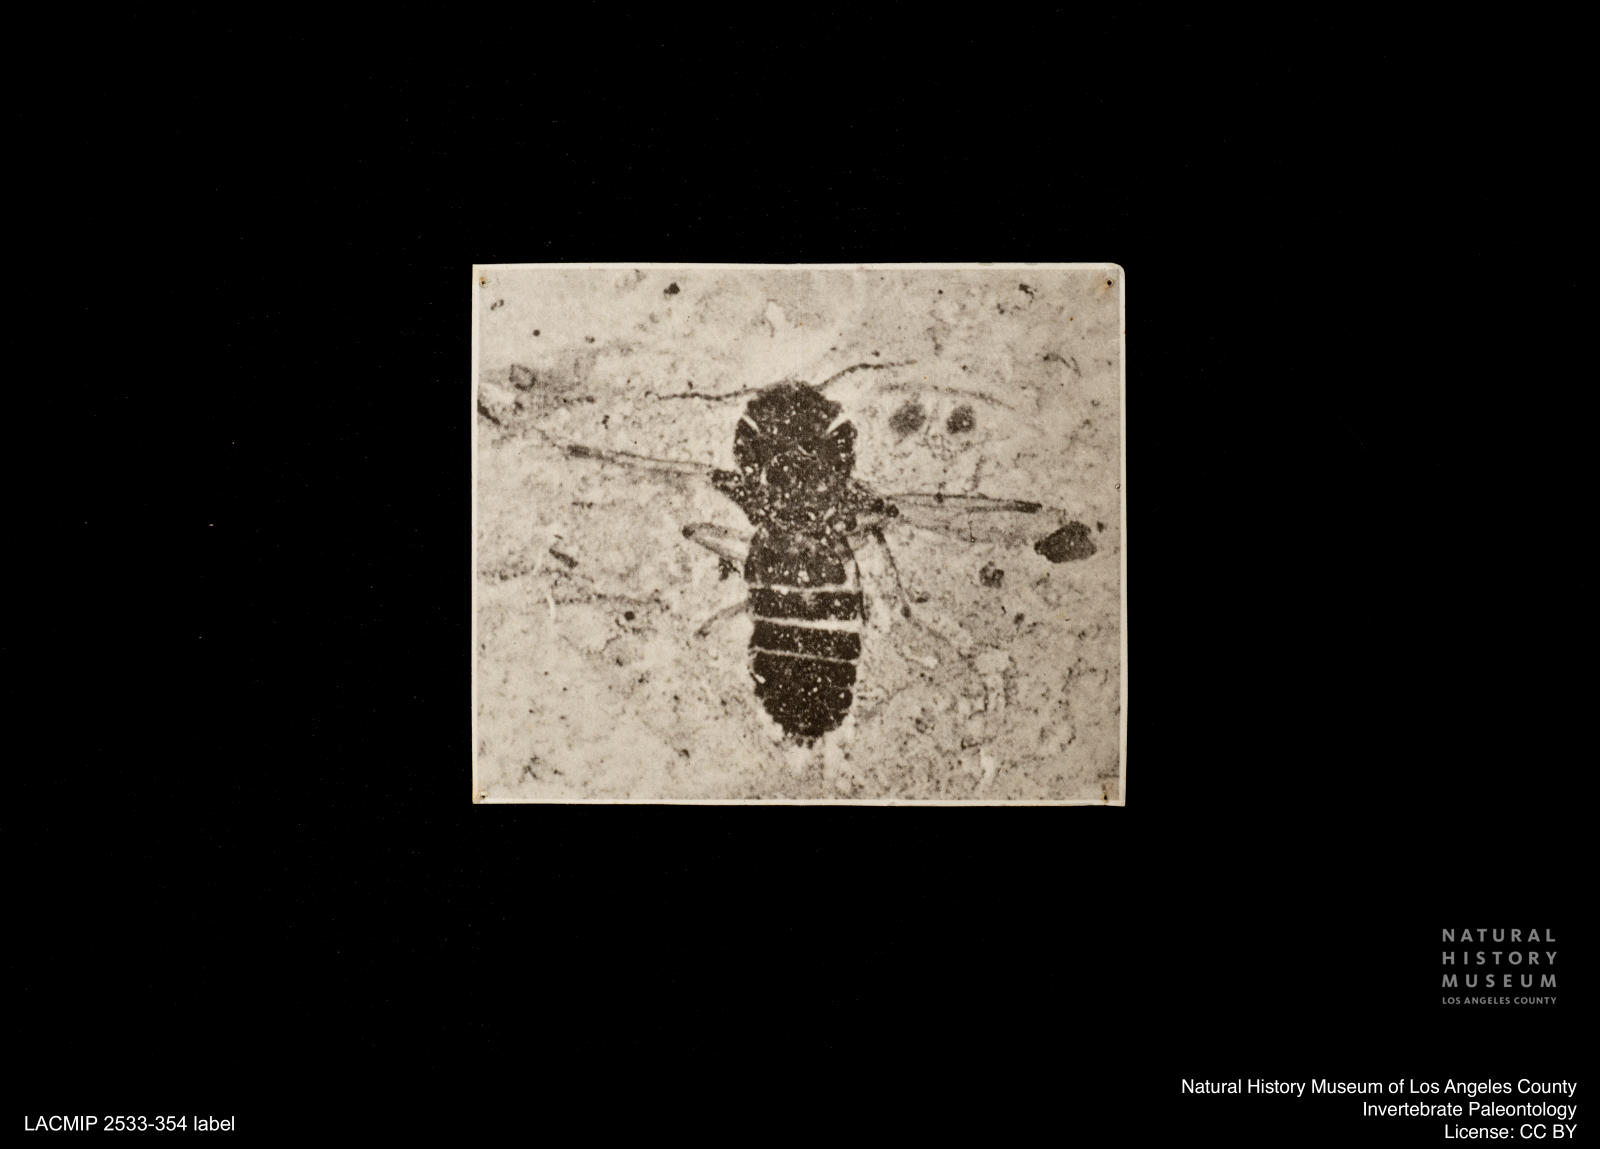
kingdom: Animalia
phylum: Arthropoda
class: Insecta
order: Diptera
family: Ceratopogonidae
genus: Culicoides
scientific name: Culicoides bicolor
